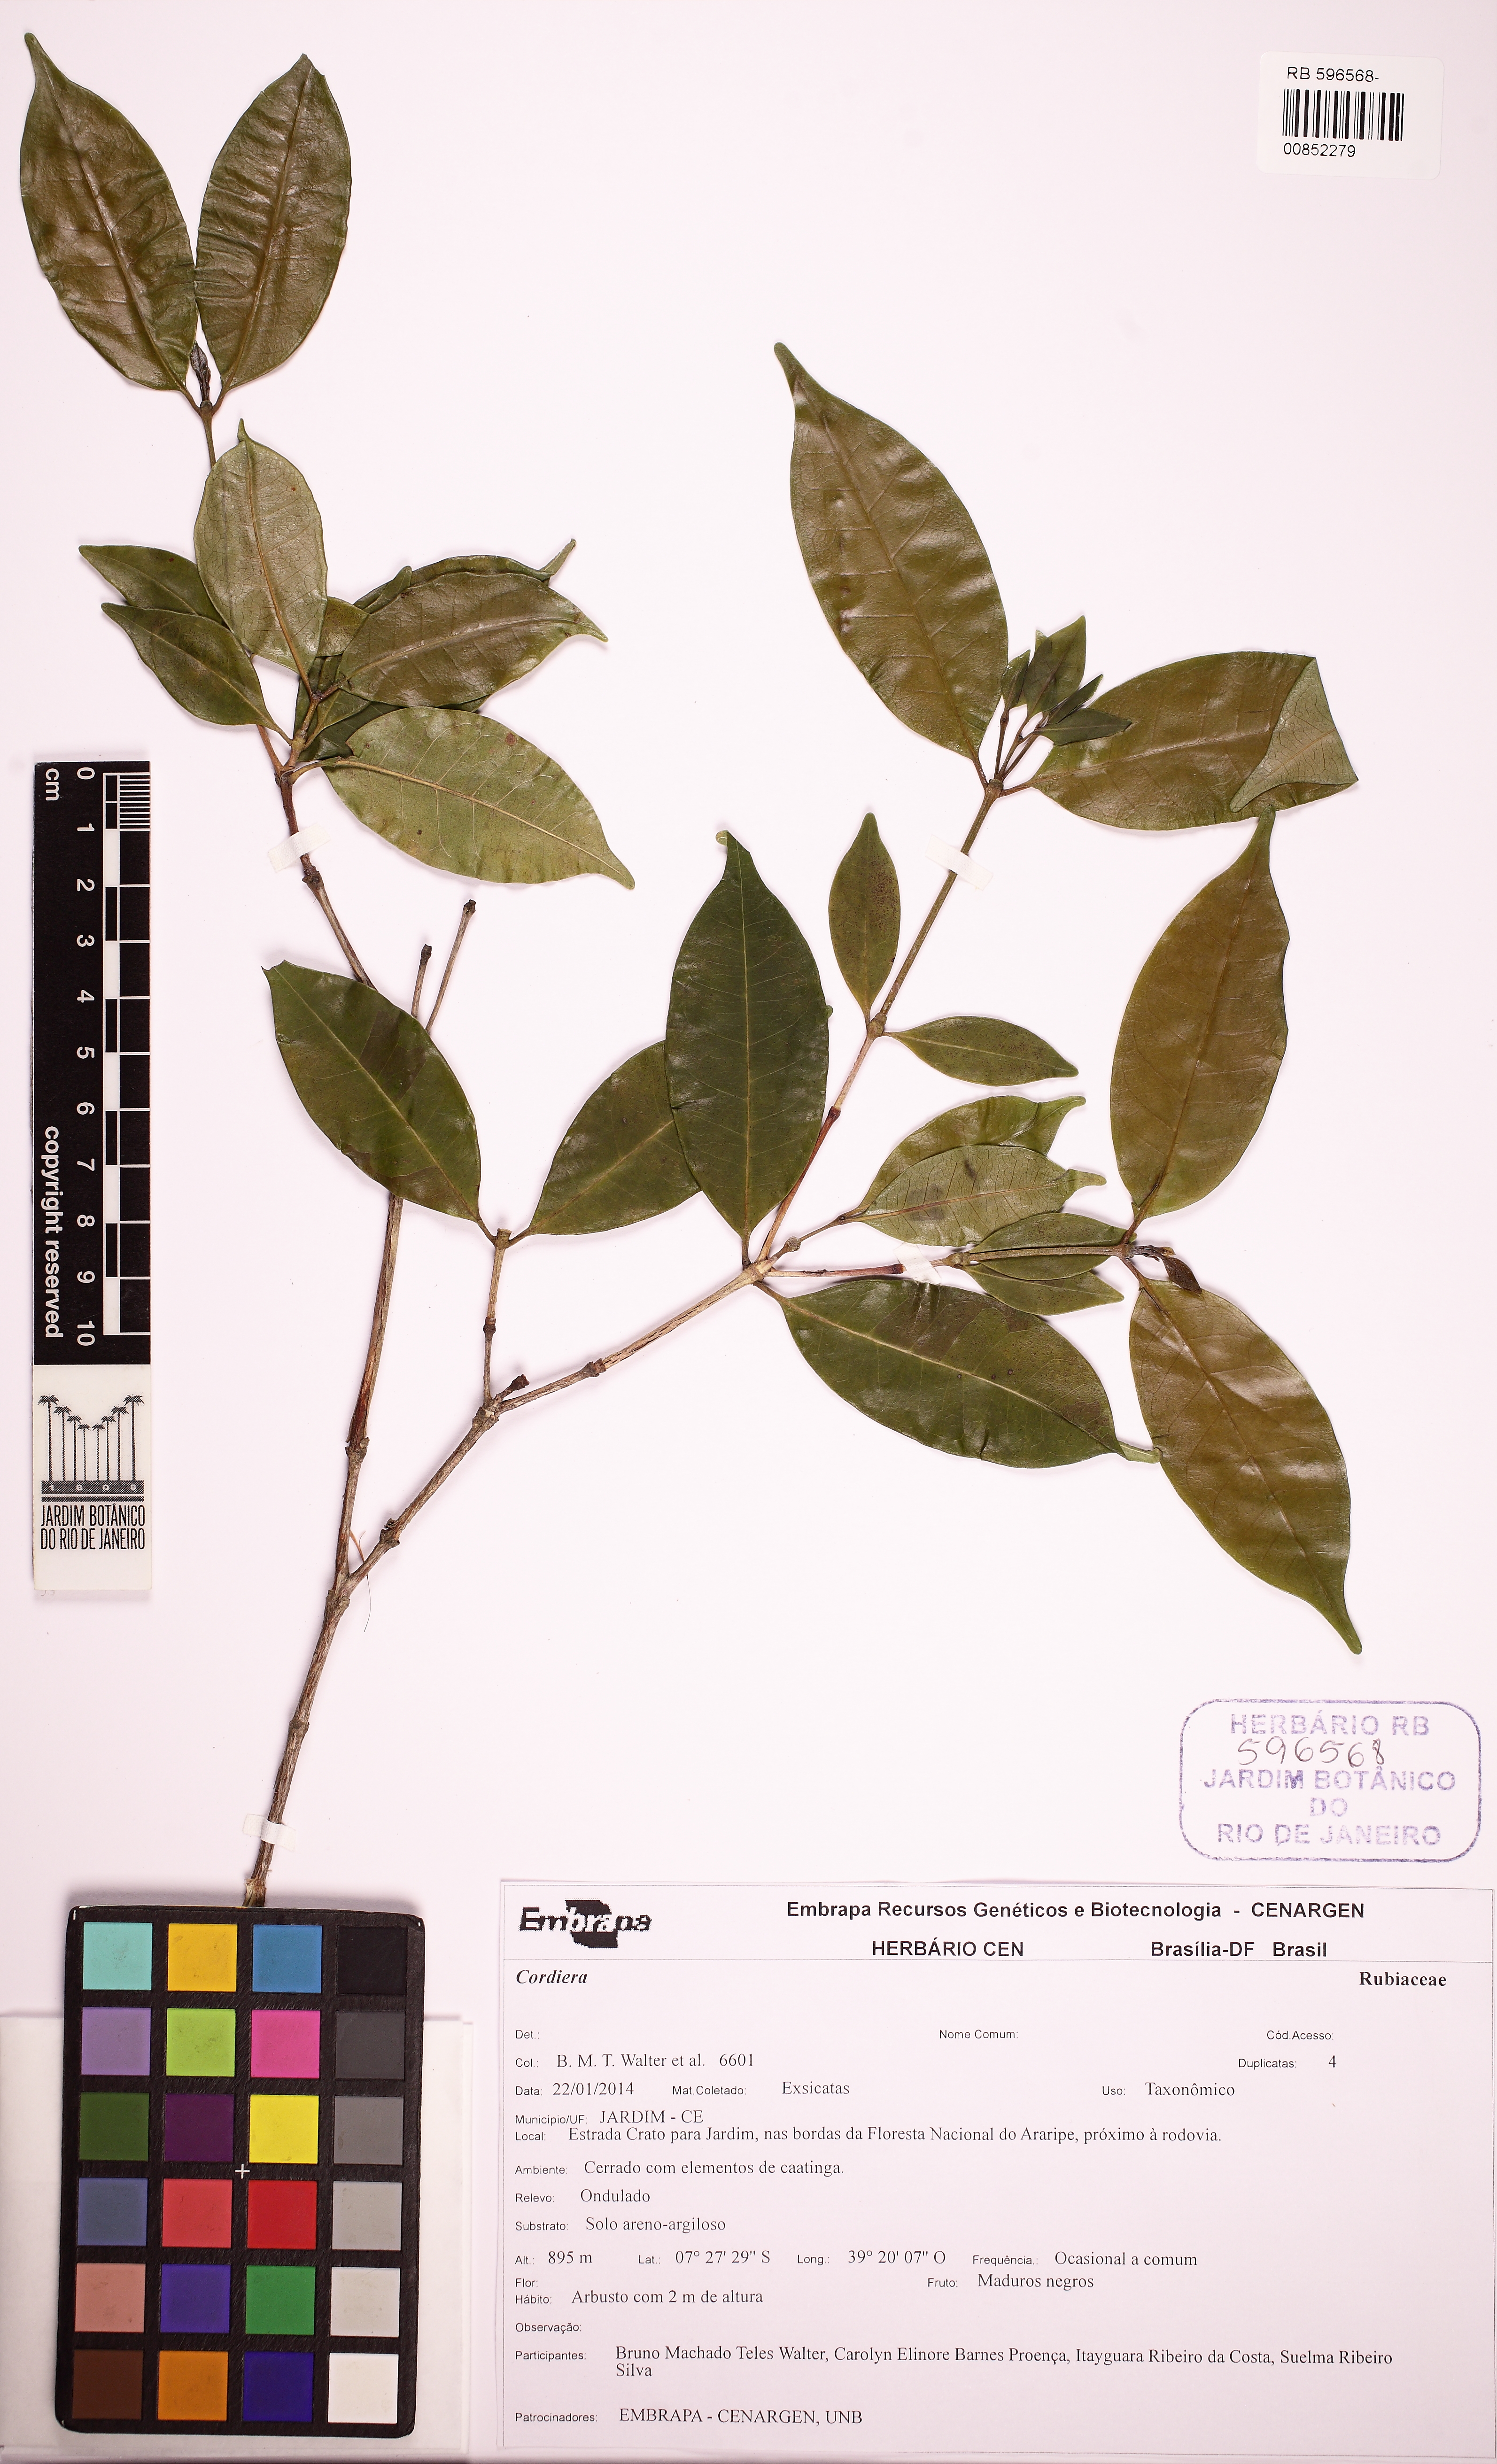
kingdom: Plantae
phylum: Tracheophyta
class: Magnoliopsida
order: Gentianales
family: Rubiaceae
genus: Cordiera
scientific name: Cordiera myrciifolia
